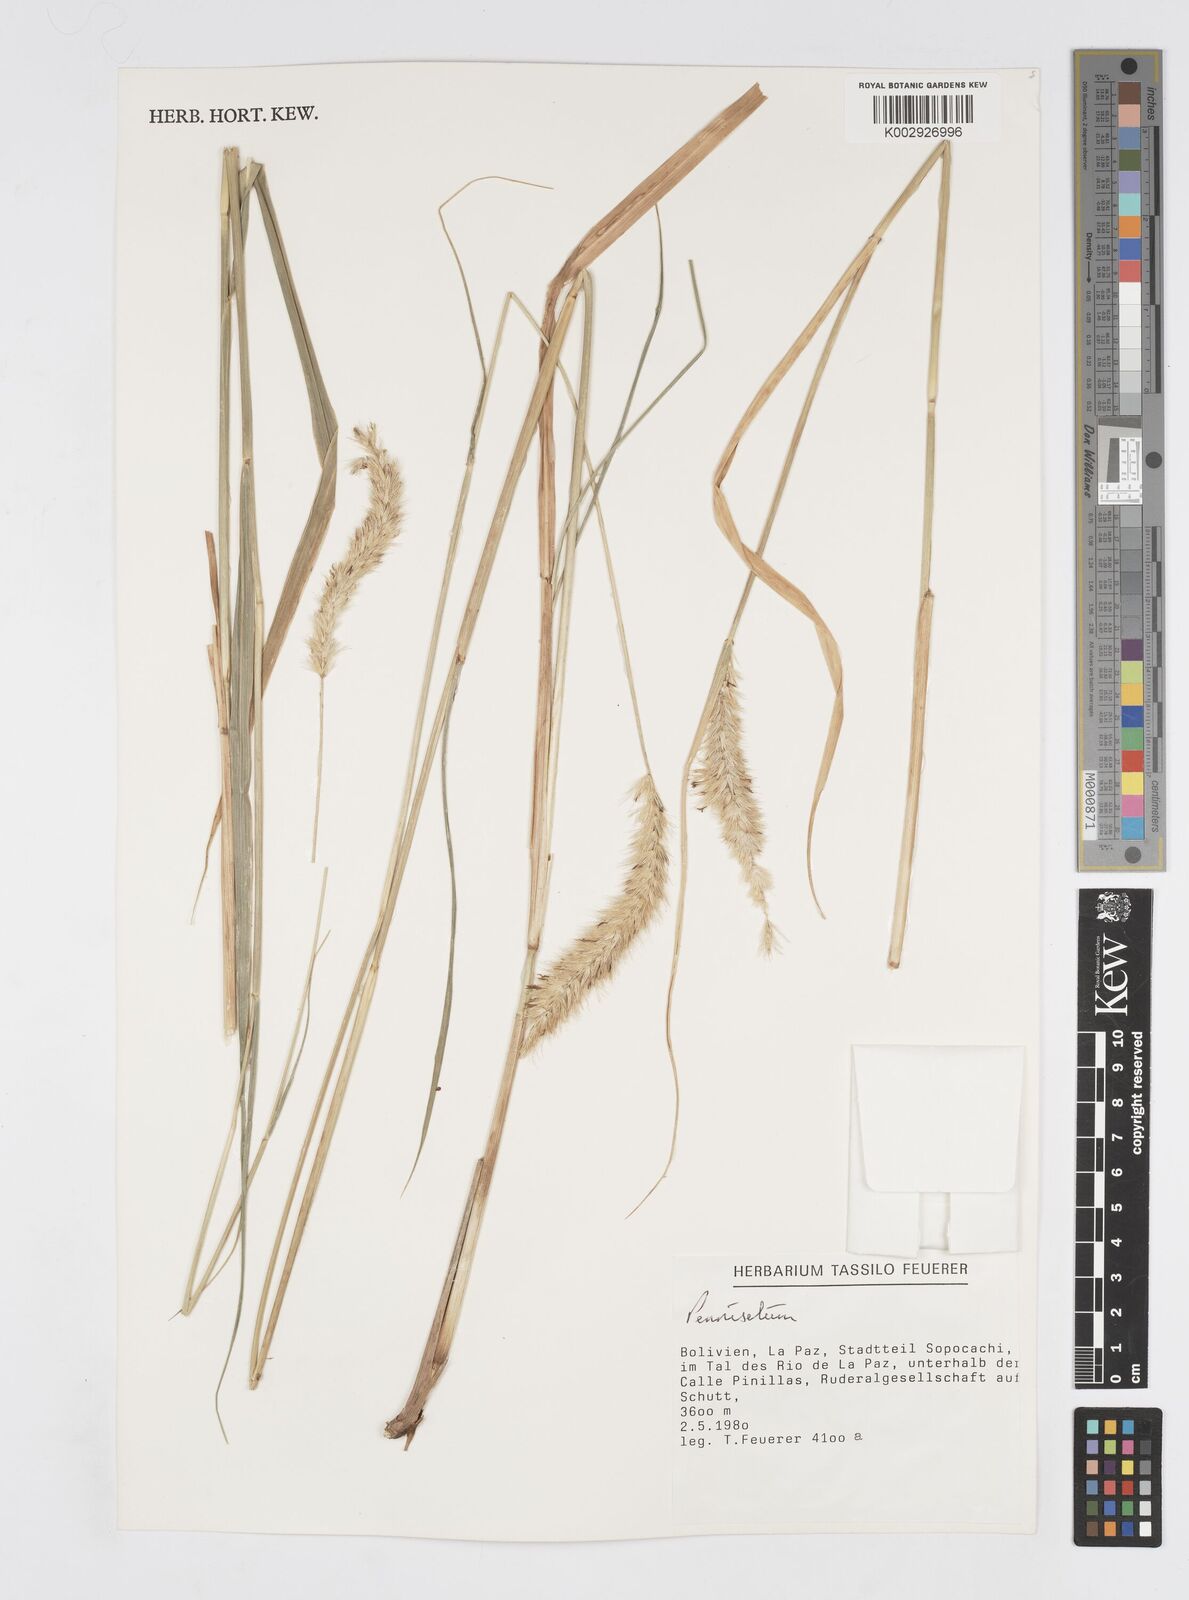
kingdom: Plantae
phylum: Tracheophyta
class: Liliopsida
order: Poales
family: Poaceae
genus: Cenchrus
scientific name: Cenchrus chilensis
